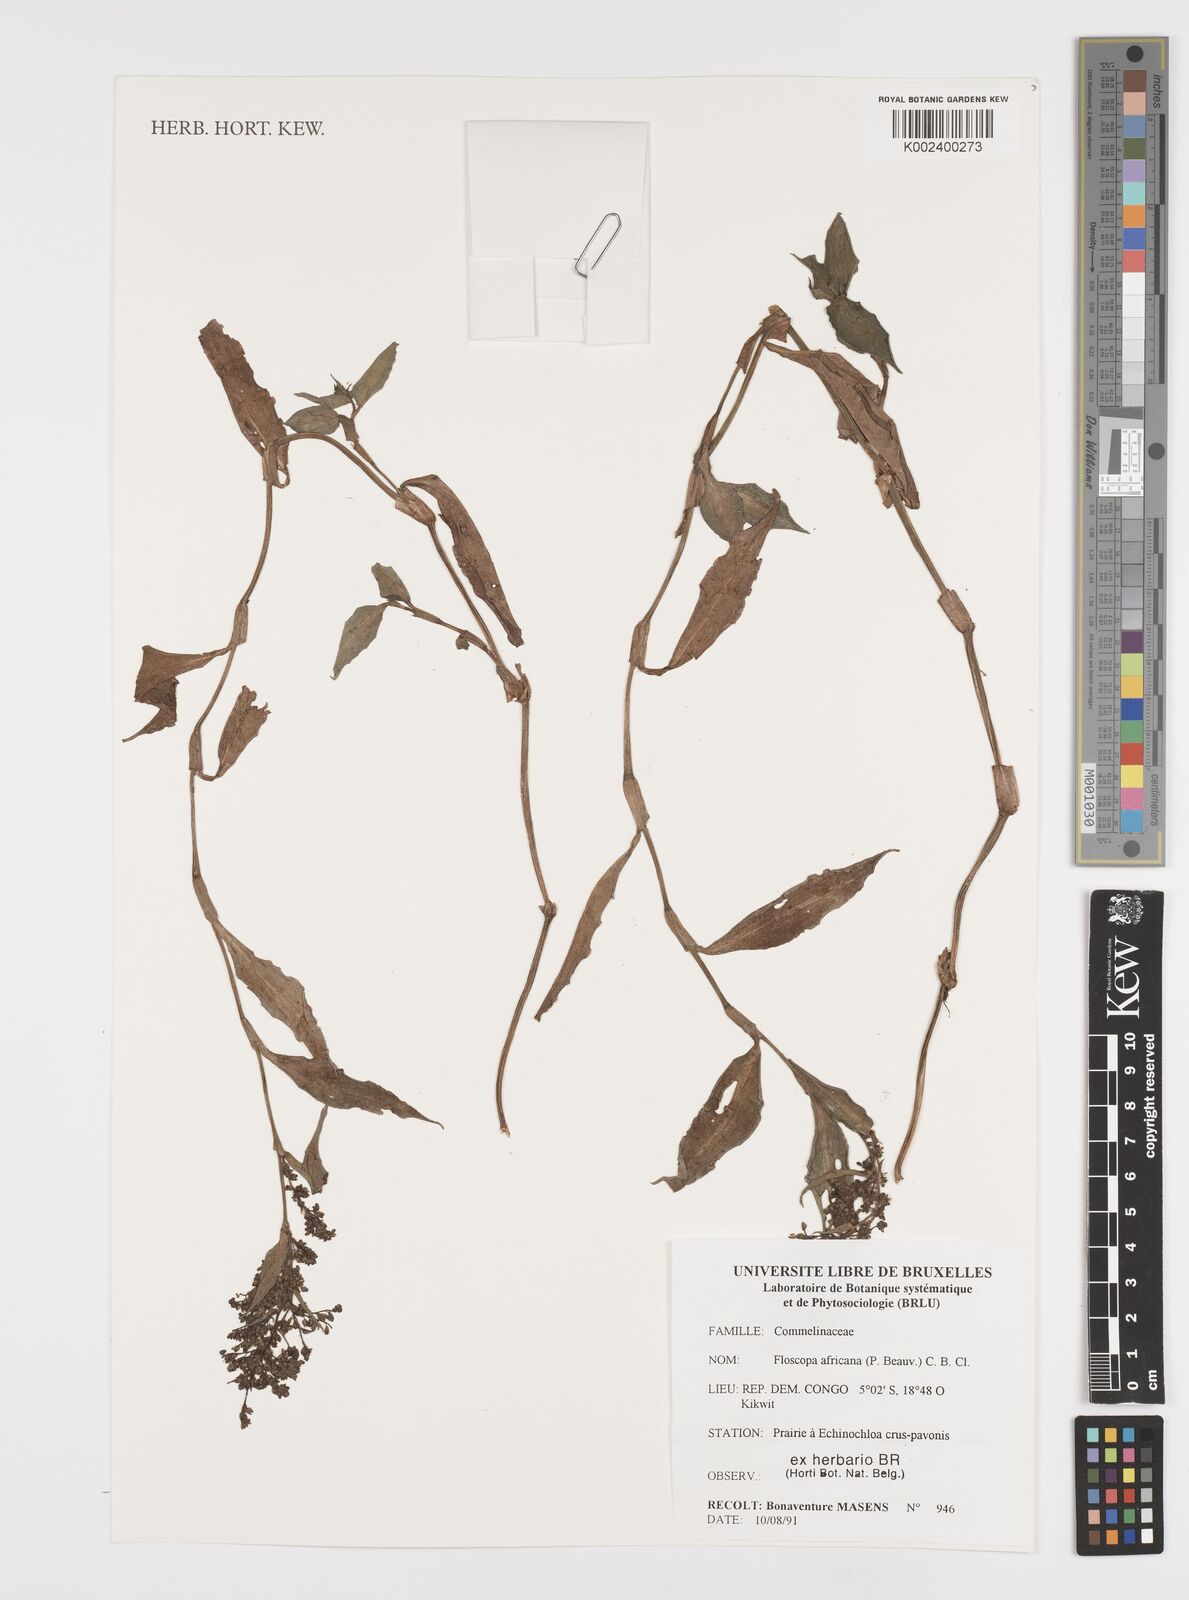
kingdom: Plantae
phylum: Tracheophyta
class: Liliopsida
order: Commelinales
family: Commelinaceae
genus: Floscopa
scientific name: Floscopa africana
